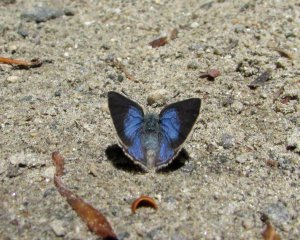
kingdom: Animalia
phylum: Arthropoda
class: Insecta
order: Lepidoptera
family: Lycaenidae
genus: Erora
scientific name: Erora laeta
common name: Early Hairstreak
